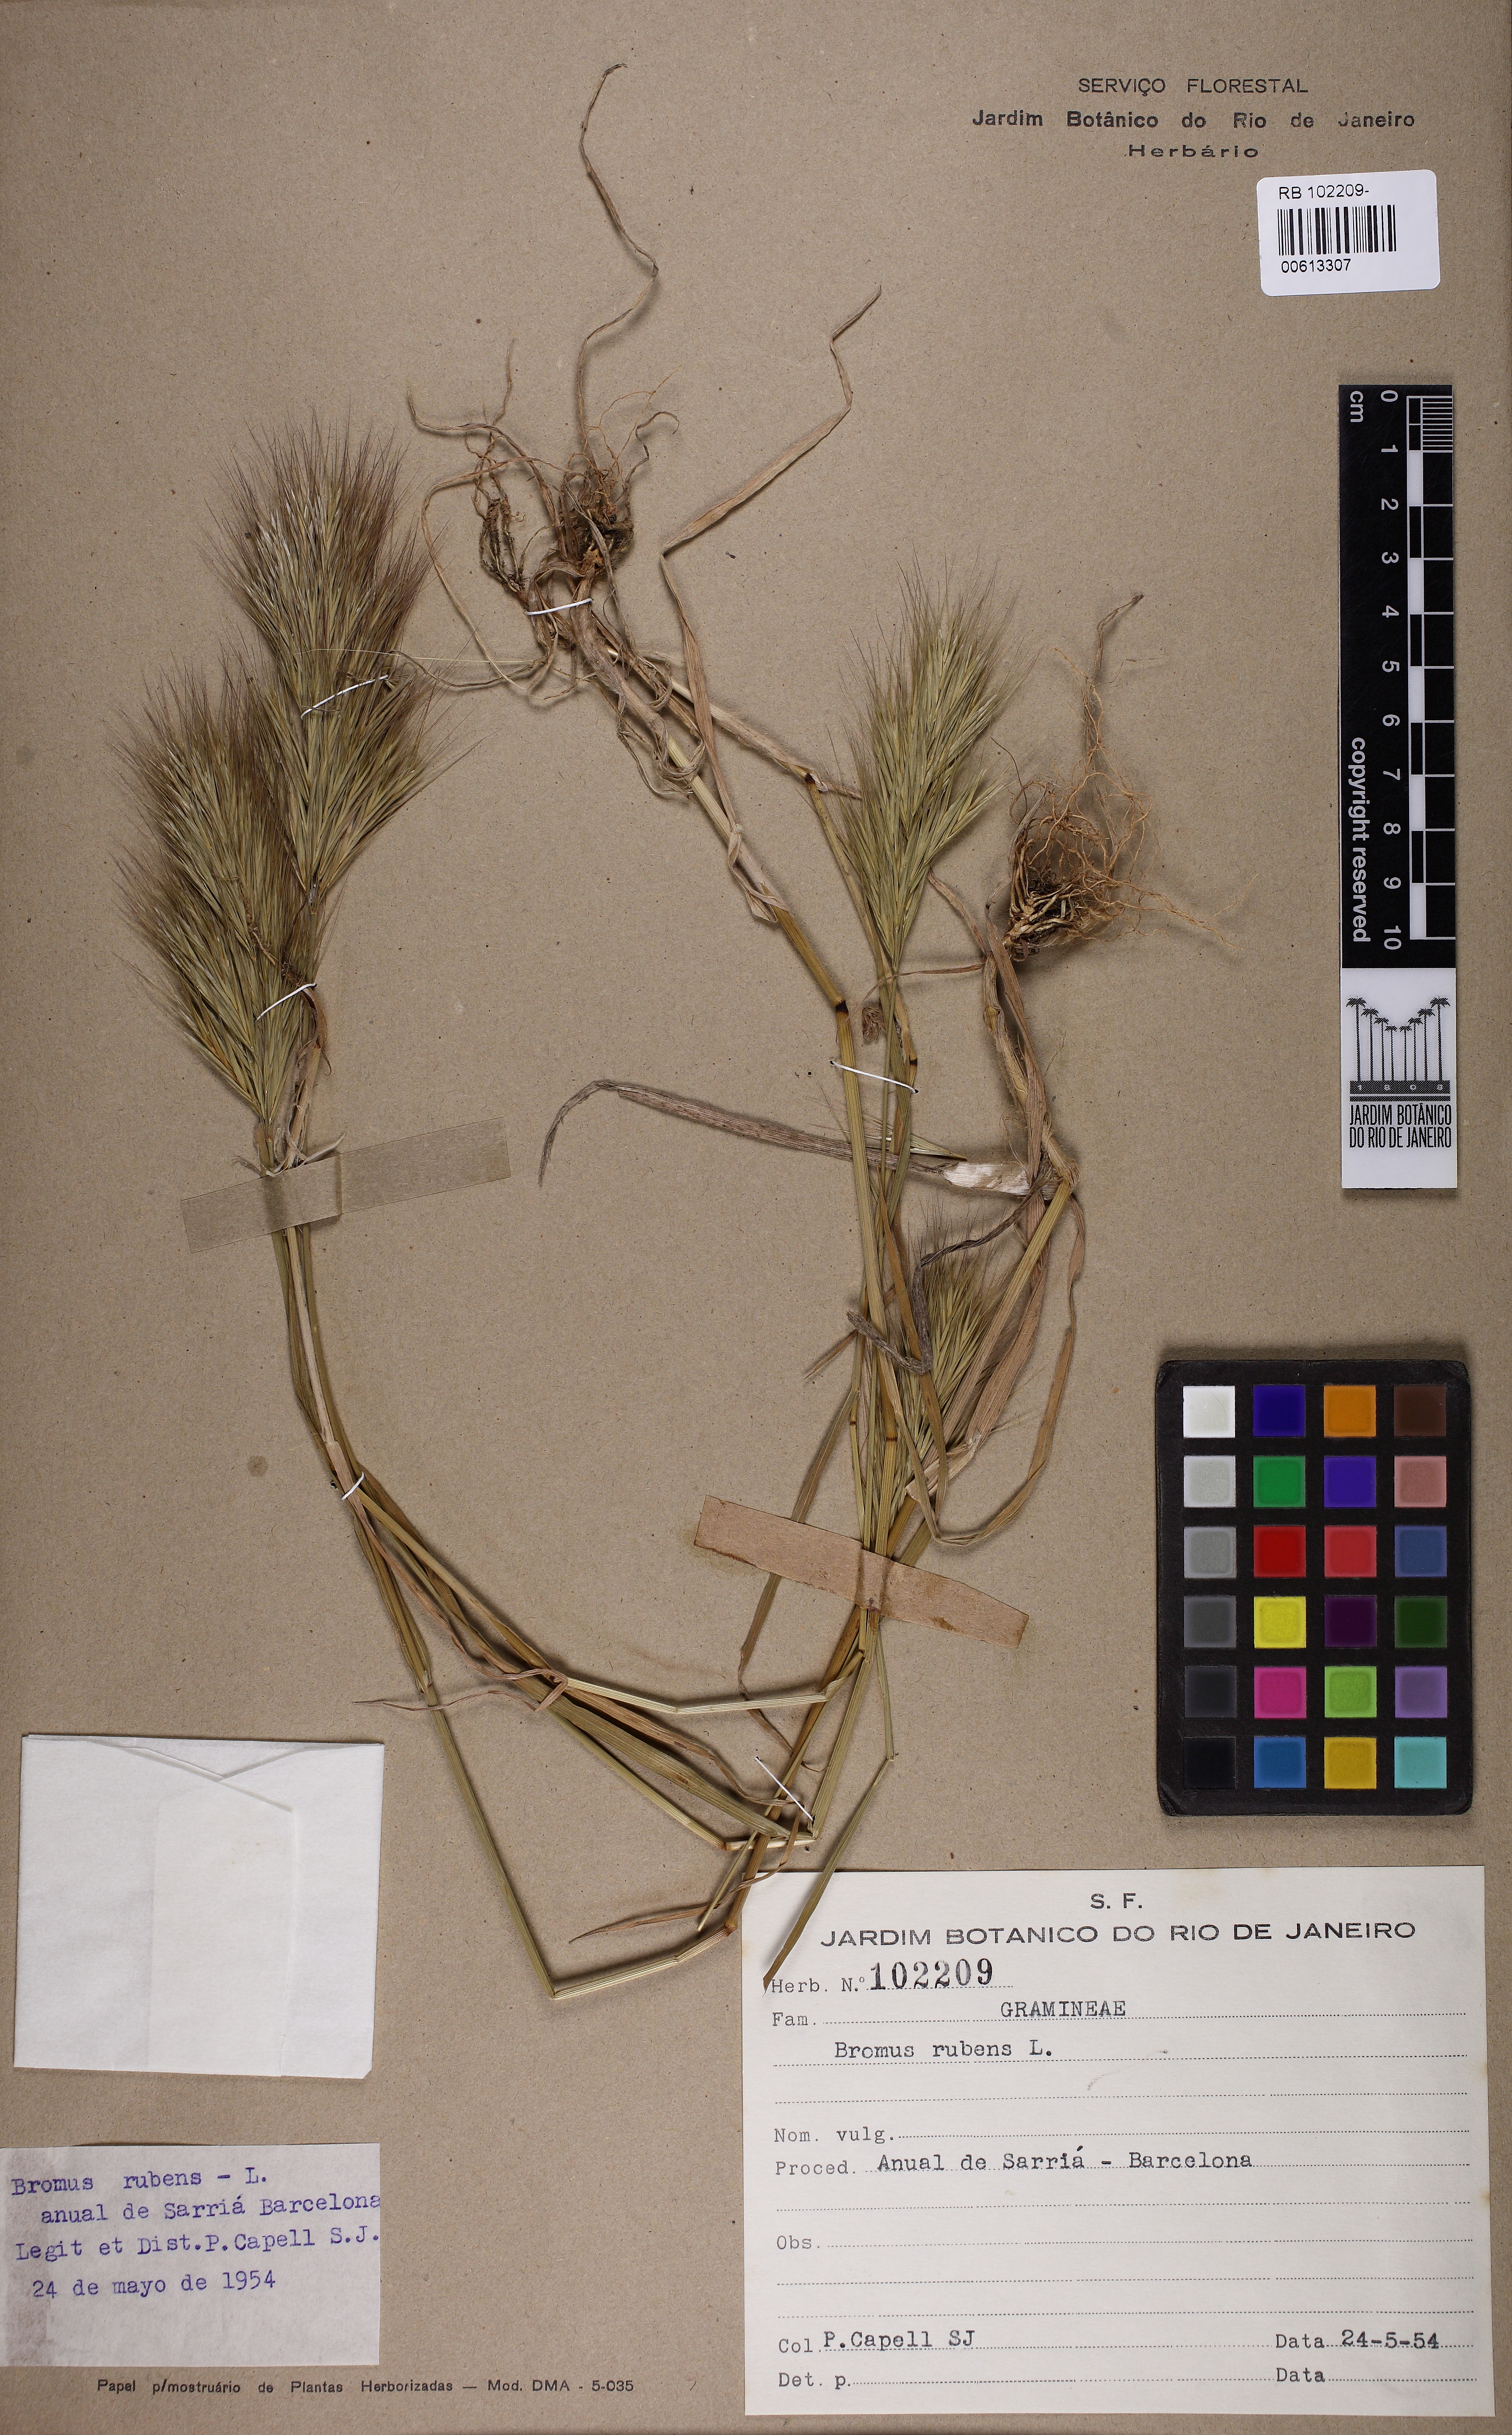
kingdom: Plantae
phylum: Tracheophyta
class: Liliopsida
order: Poales
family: Poaceae
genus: Bromus
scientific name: Bromus rubens
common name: Red brome
